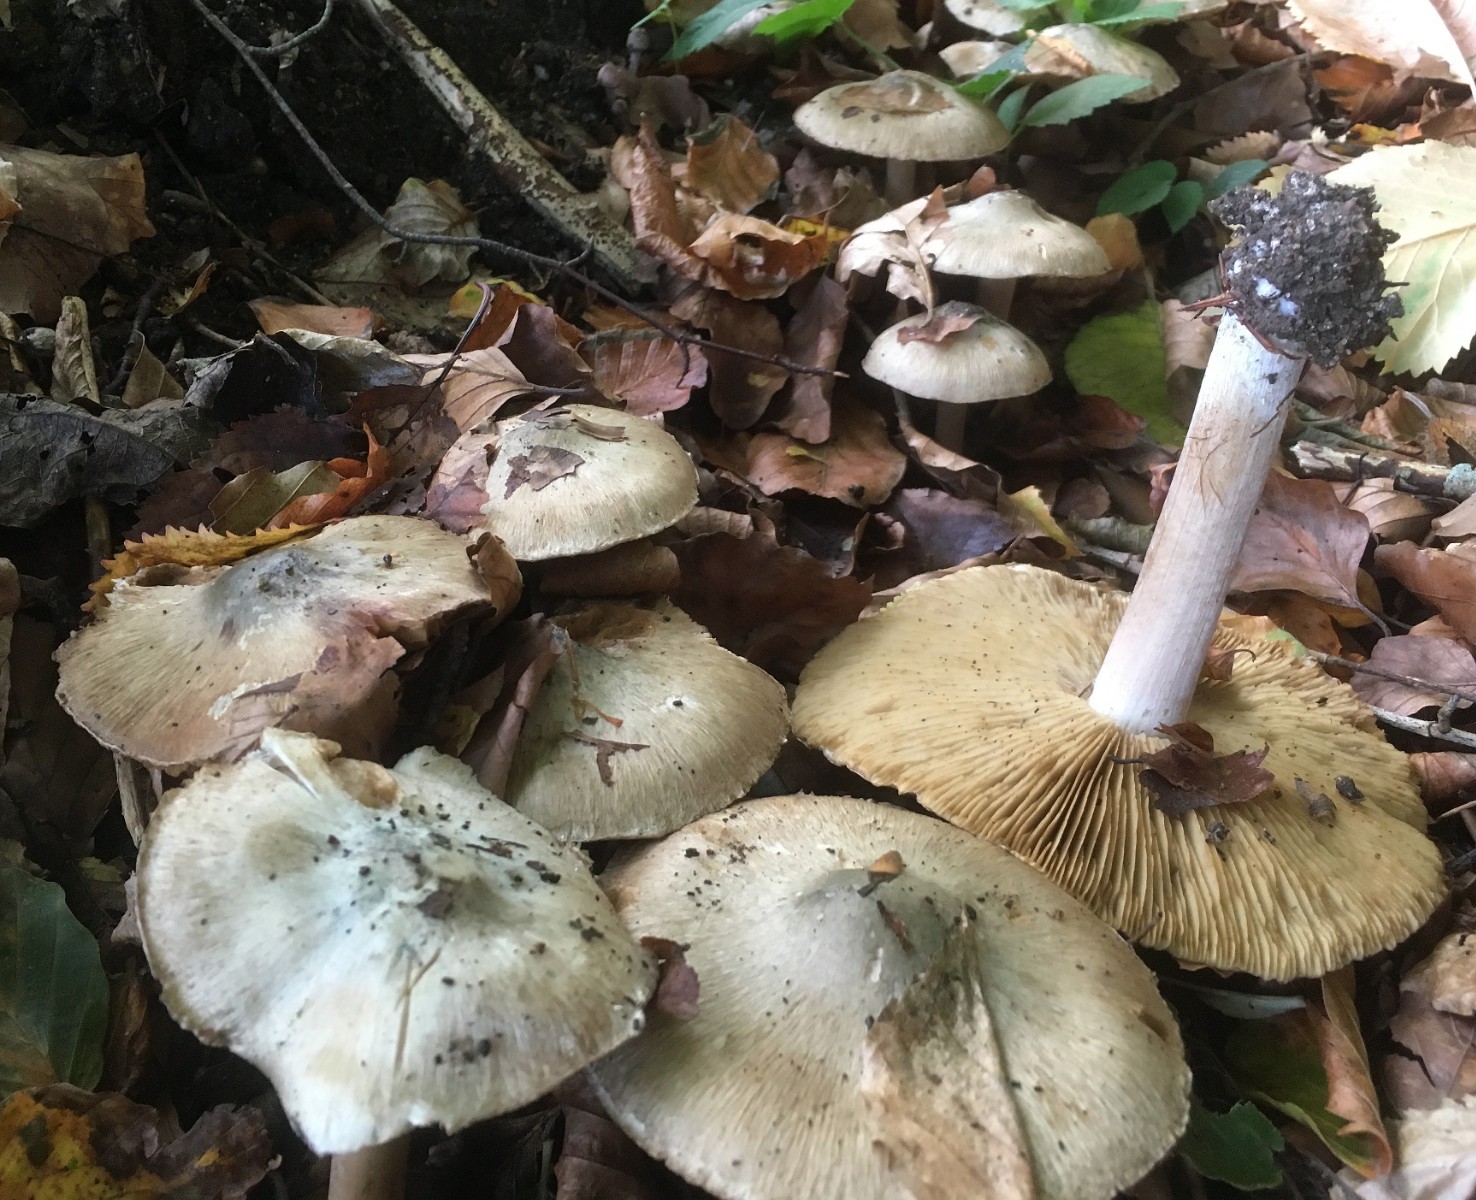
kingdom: Fungi
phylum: Basidiomycota
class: Agaricomycetes
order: Agaricales
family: Inocybaceae
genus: Inocybe
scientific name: Inocybe corydalina
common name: grønpuklet trævlhat
